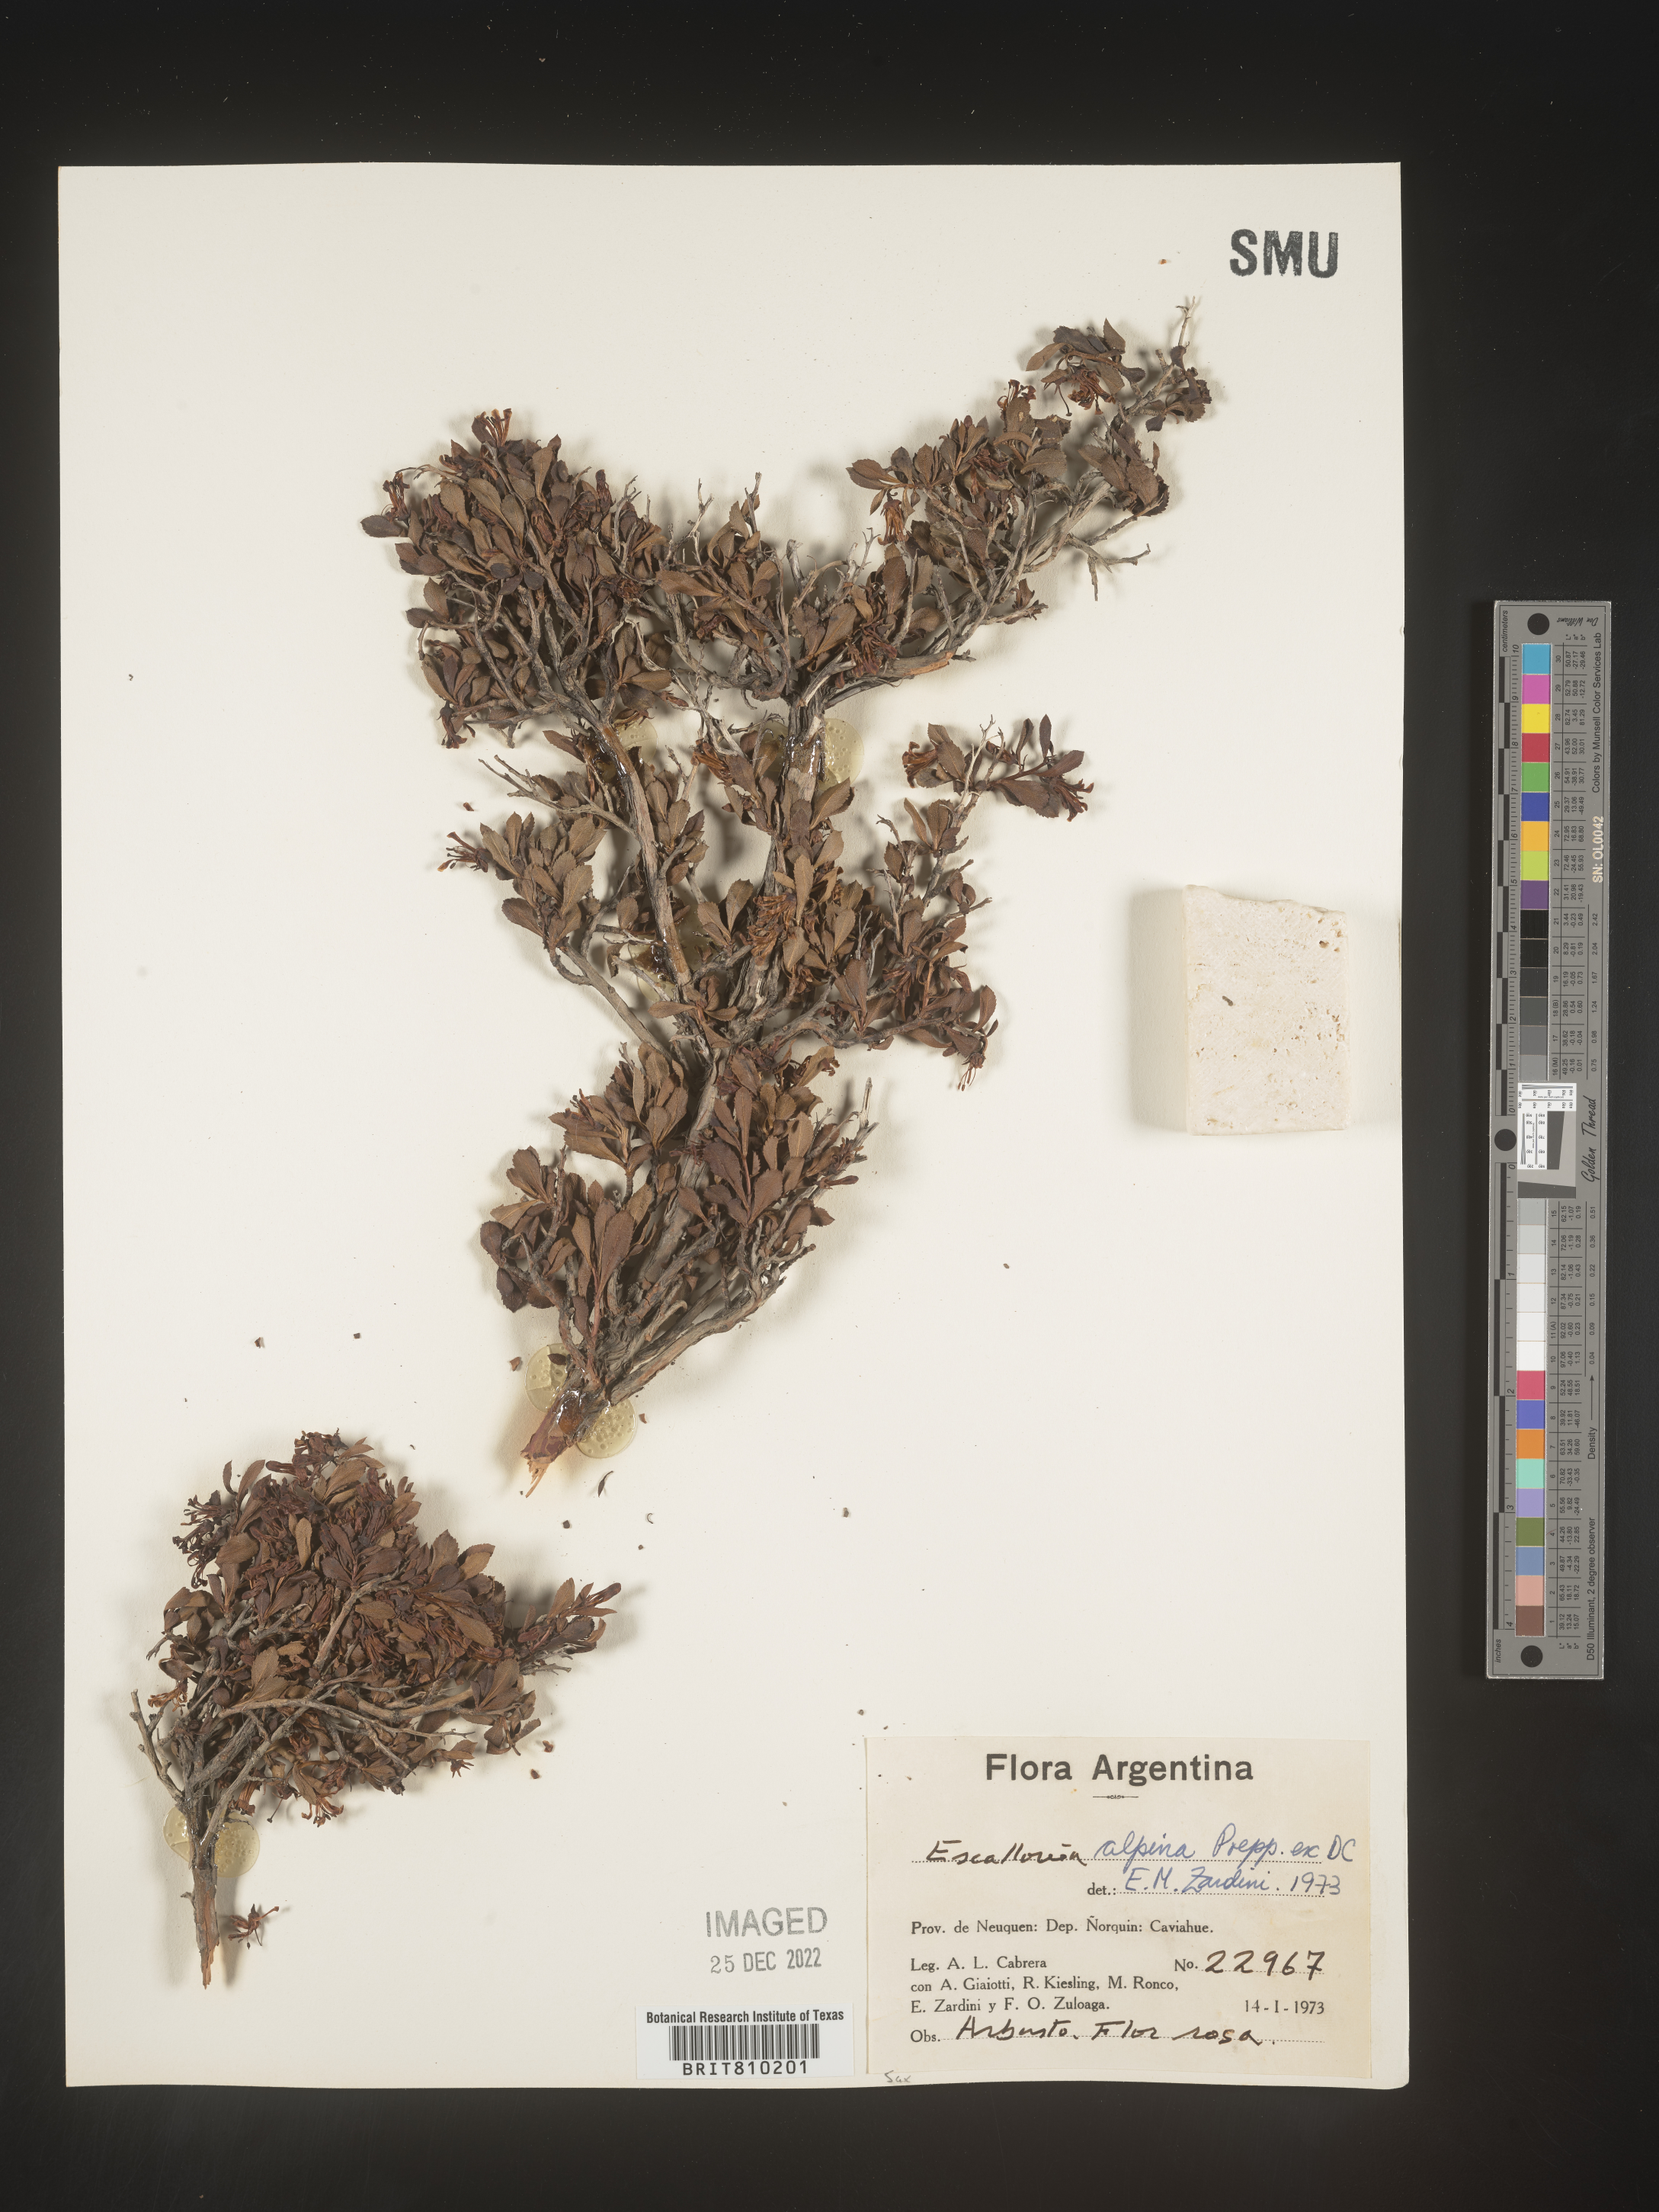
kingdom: Plantae
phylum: Tracheophyta
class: Magnoliopsida
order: Escalloniales
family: Escalloniaceae
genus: Escallonia
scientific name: Escallonia
